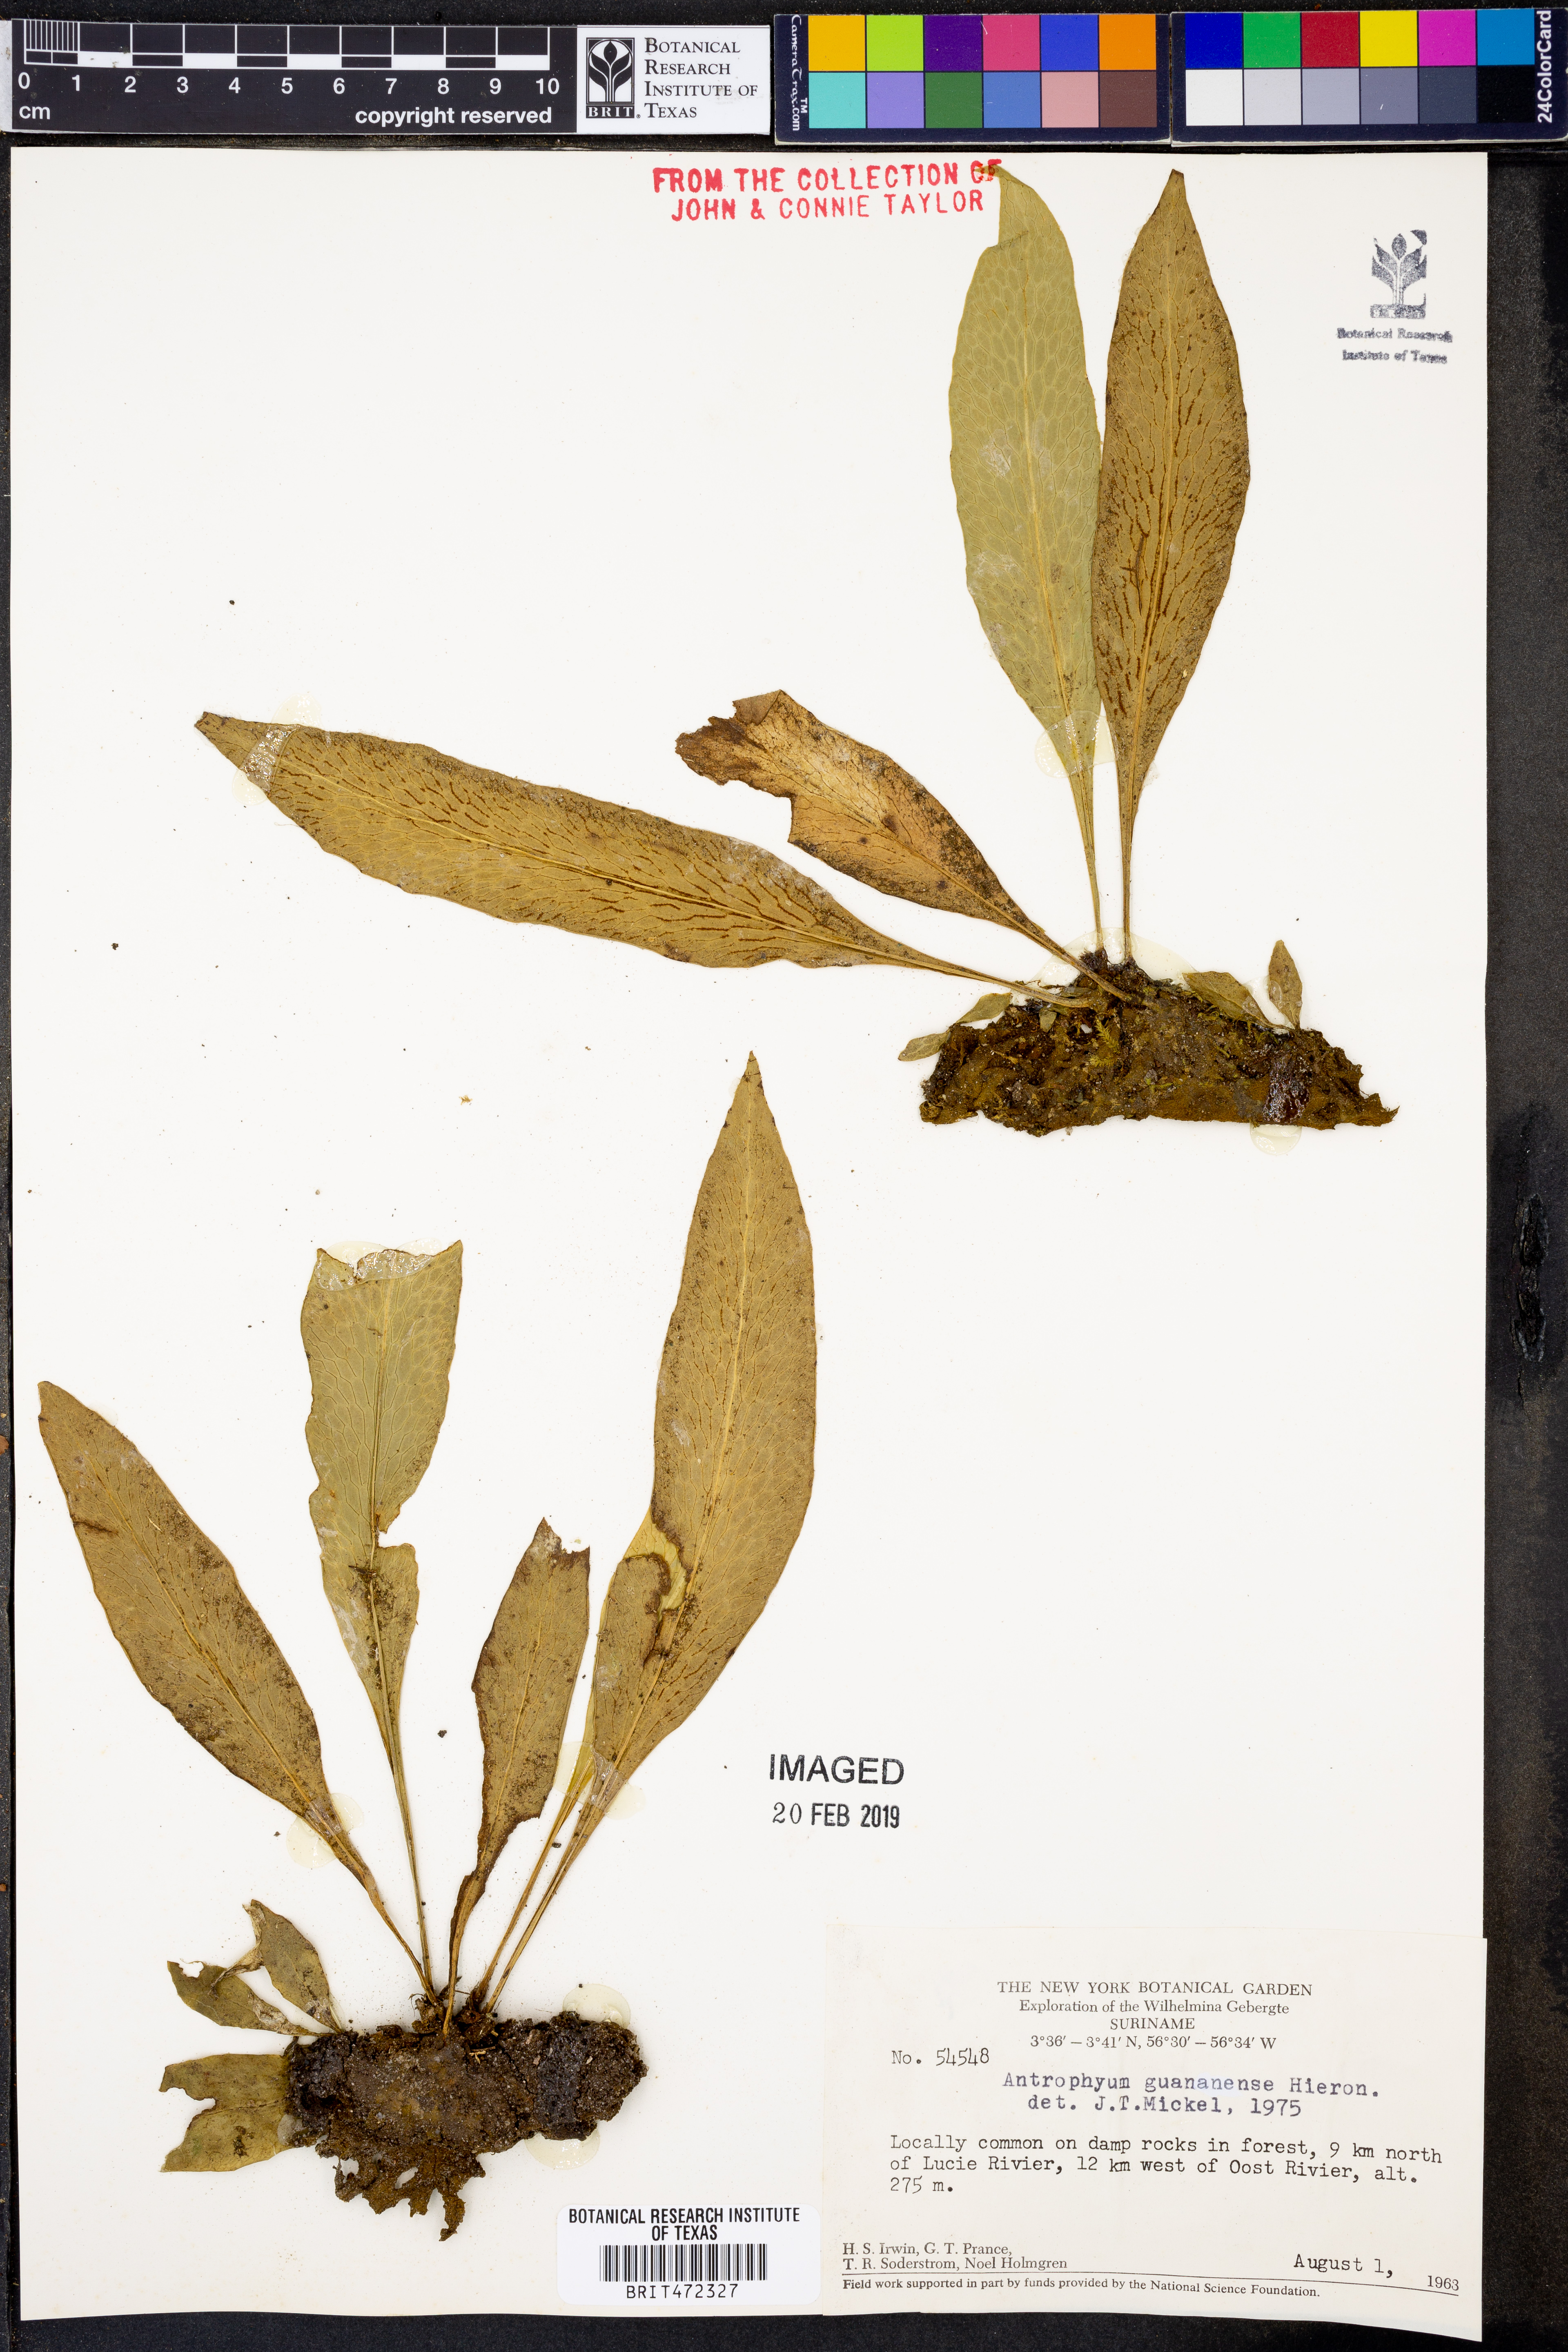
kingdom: Plantae
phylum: Tracheophyta
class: Polypodiopsida
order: Polypodiales
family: Pteridaceae
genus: Polytaenium
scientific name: Polytaenium guayanense
